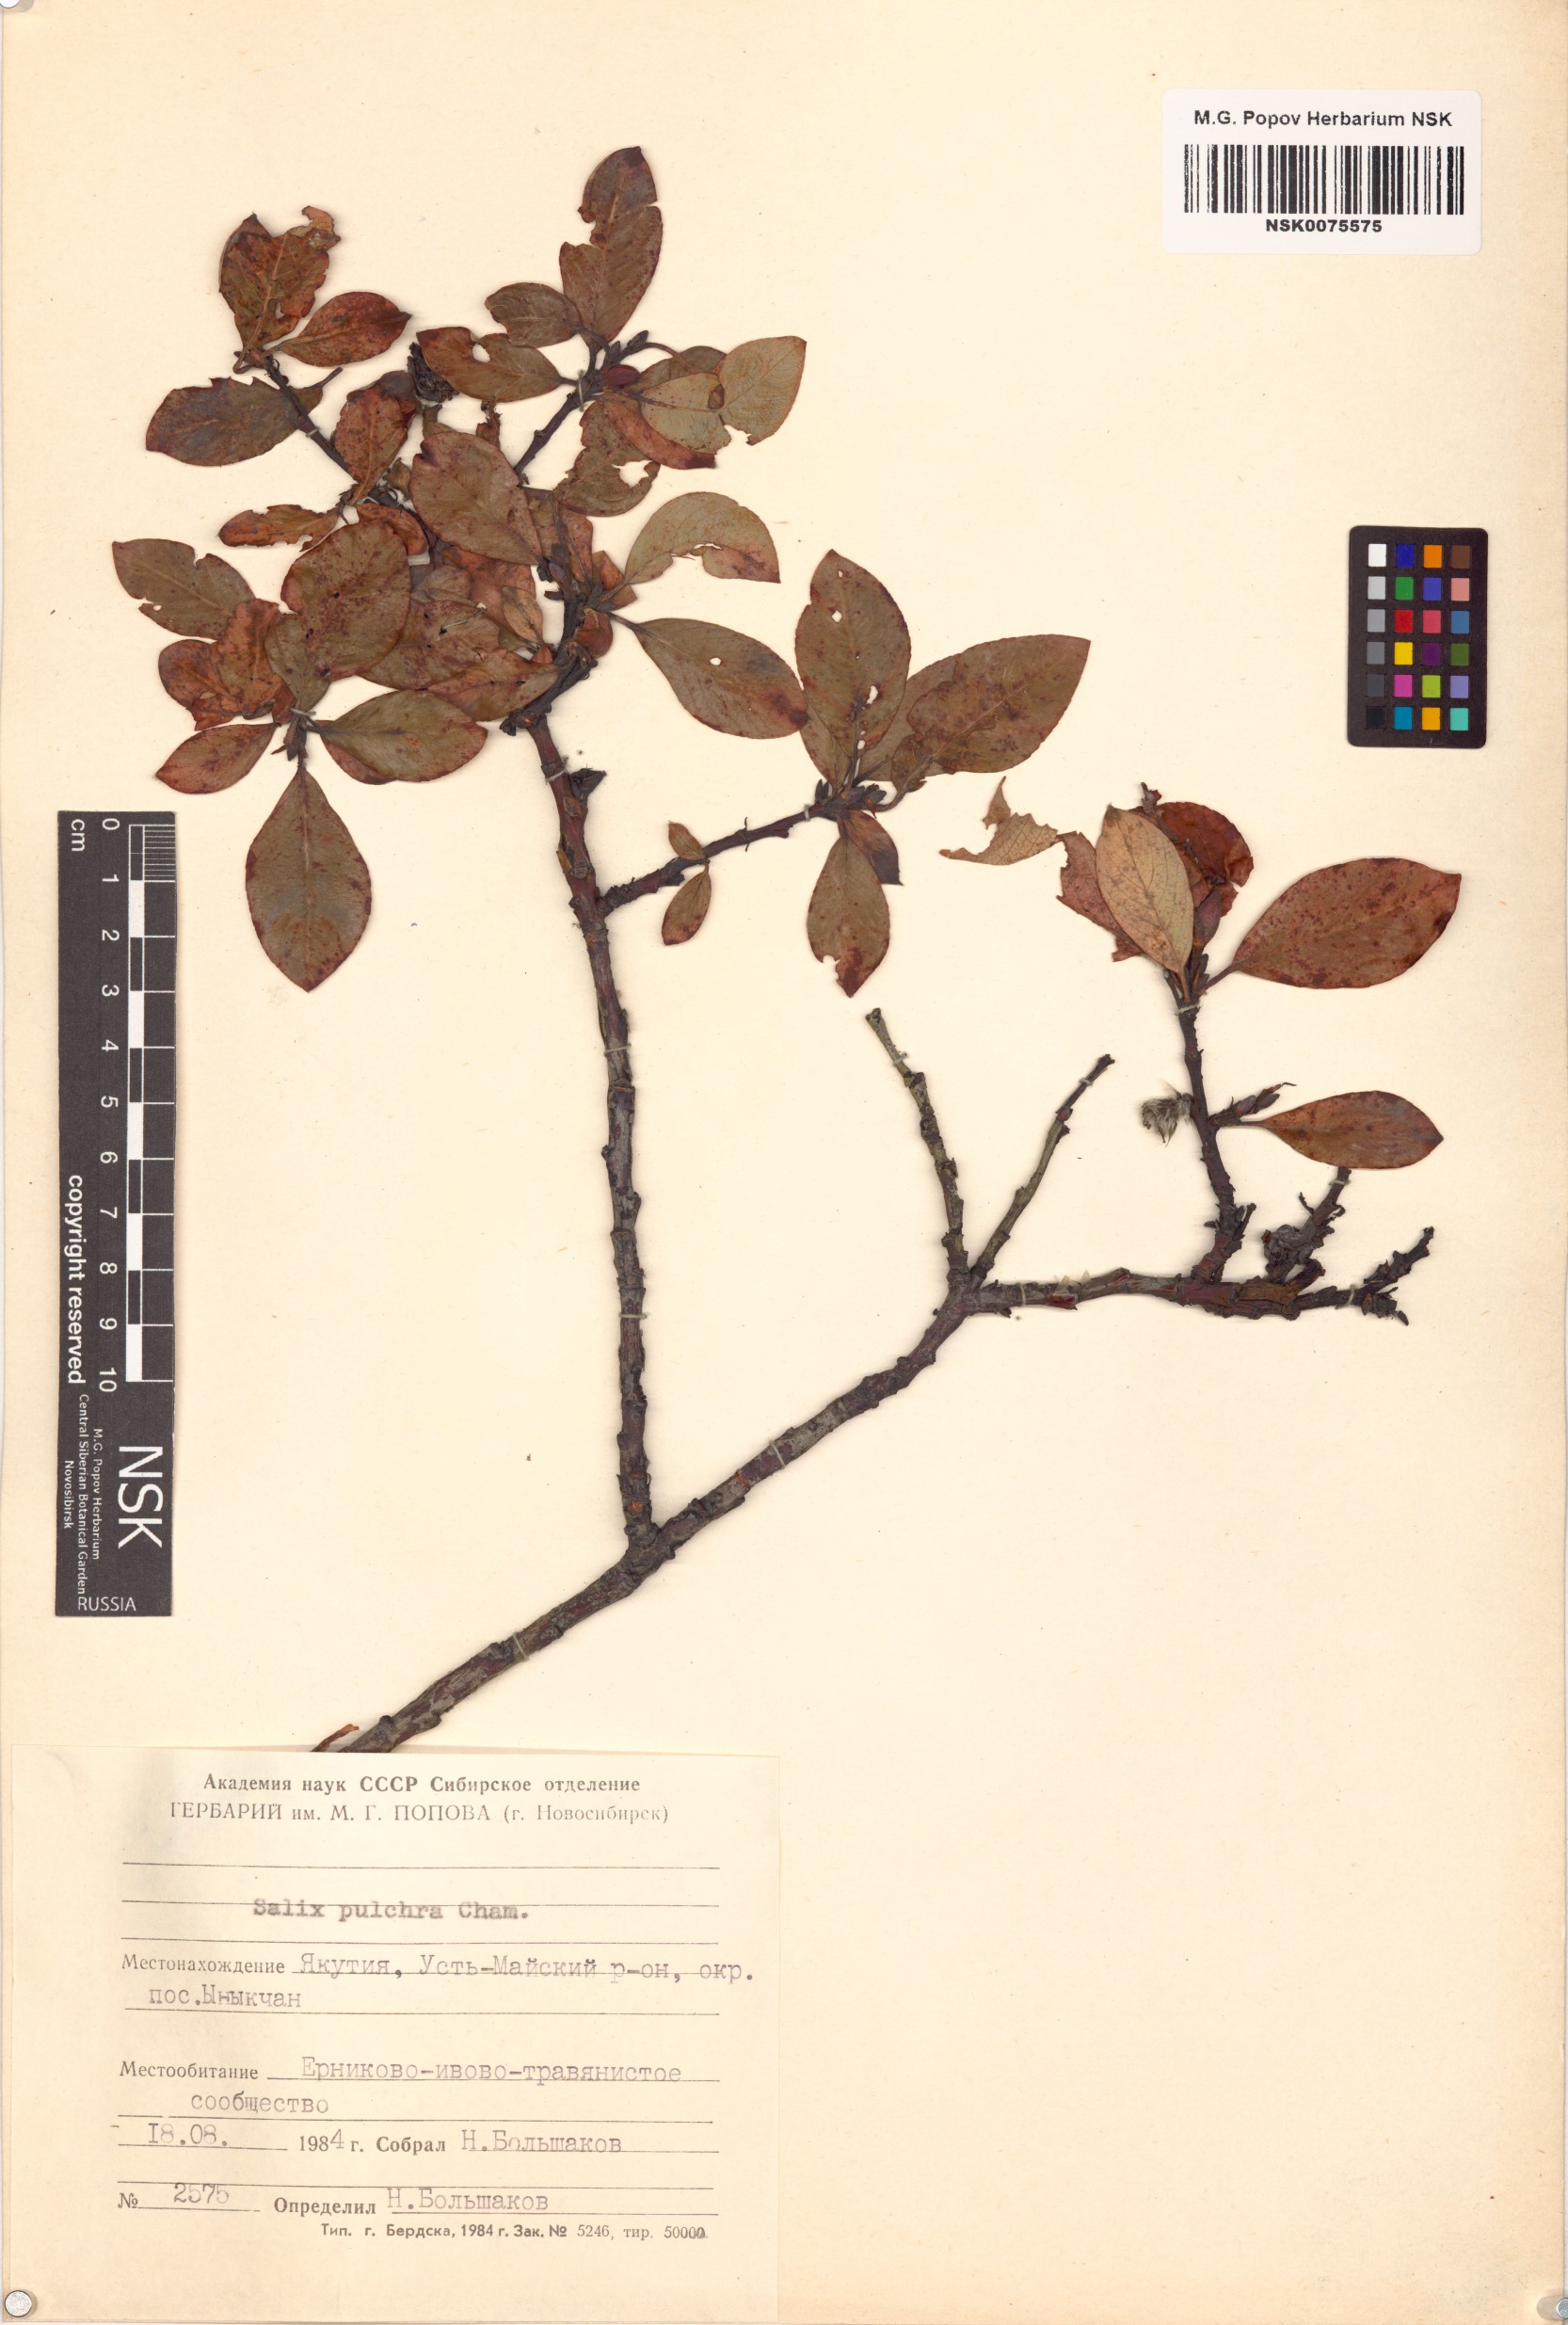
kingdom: Plantae
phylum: Tracheophyta
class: Magnoliopsida
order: Malpighiales
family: Salicaceae
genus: Salix
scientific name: Salix pulchra
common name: Diamond-leaved willow
